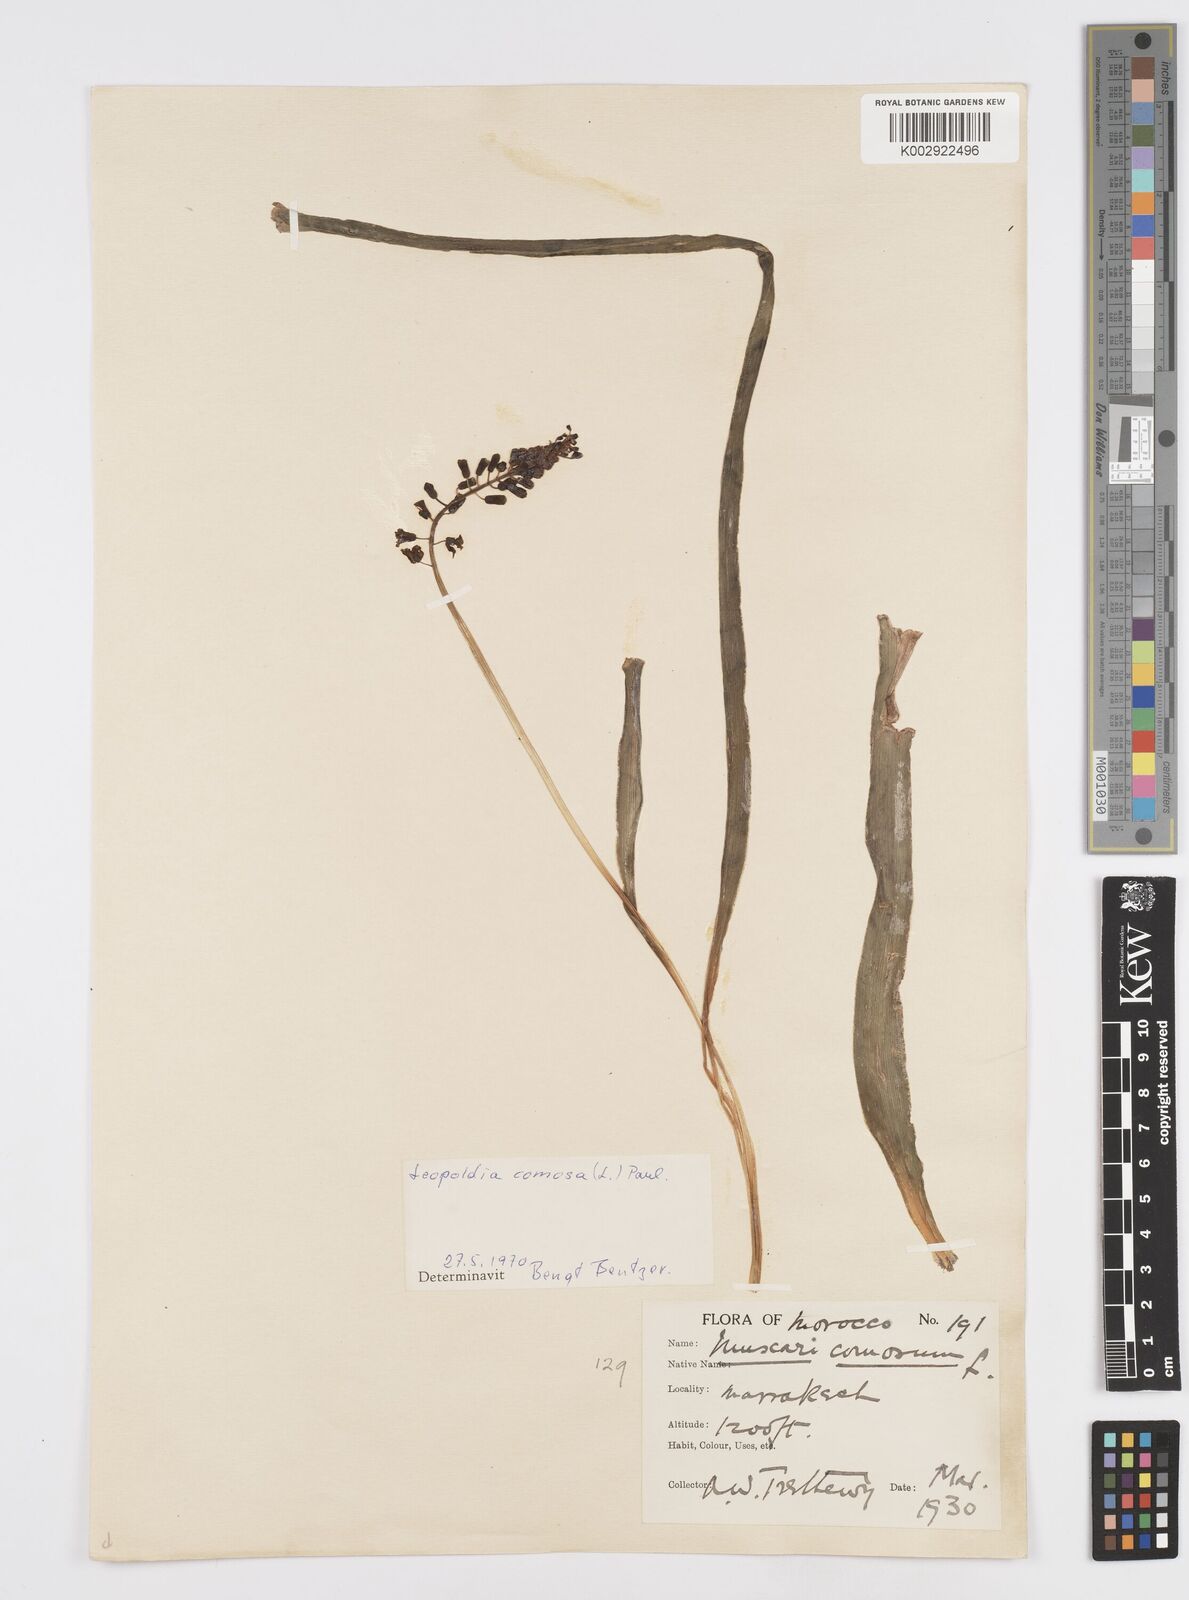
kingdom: Plantae
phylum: Tracheophyta
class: Liliopsida
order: Asparagales
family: Asparagaceae
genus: Muscari
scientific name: Muscari comosum
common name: Tassel hyacinth
